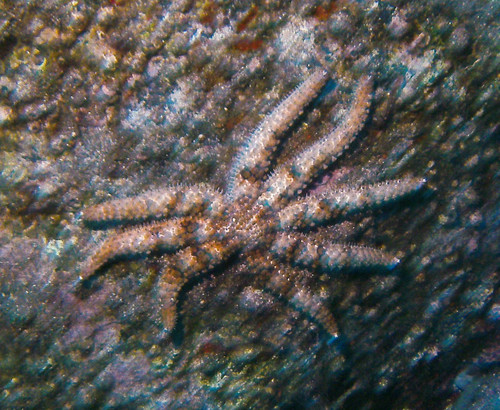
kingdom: Animalia
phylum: Echinodermata
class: Asteroidea
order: Forcipulatida
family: Asteriidae
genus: Coscinasterias
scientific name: Coscinasterias tenuispina
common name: Blue spiny starfish
